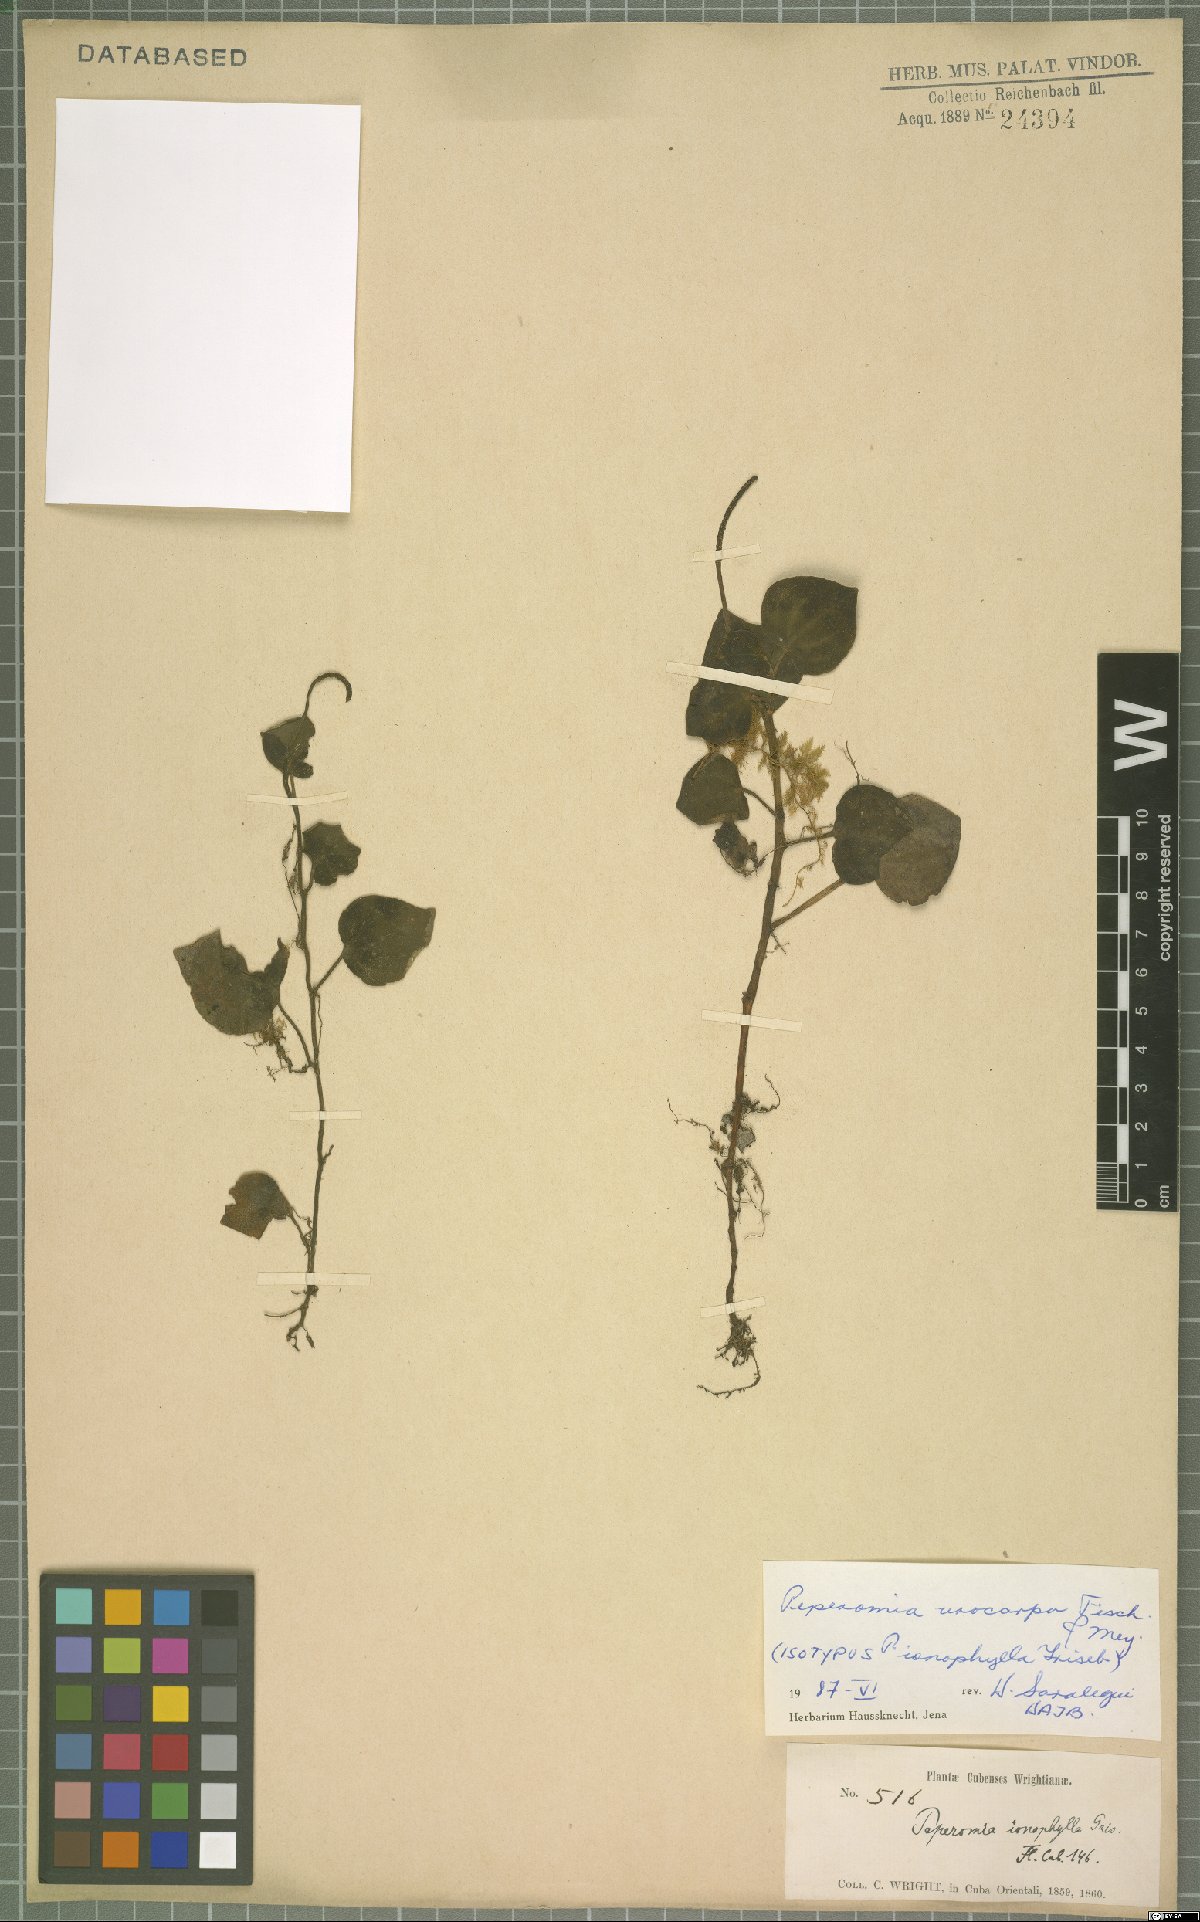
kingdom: Plantae
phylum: Tracheophyta
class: Magnoliopsida
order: Piperales
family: Piperaceae
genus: Peperomia
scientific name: Peperomia urocarpa
